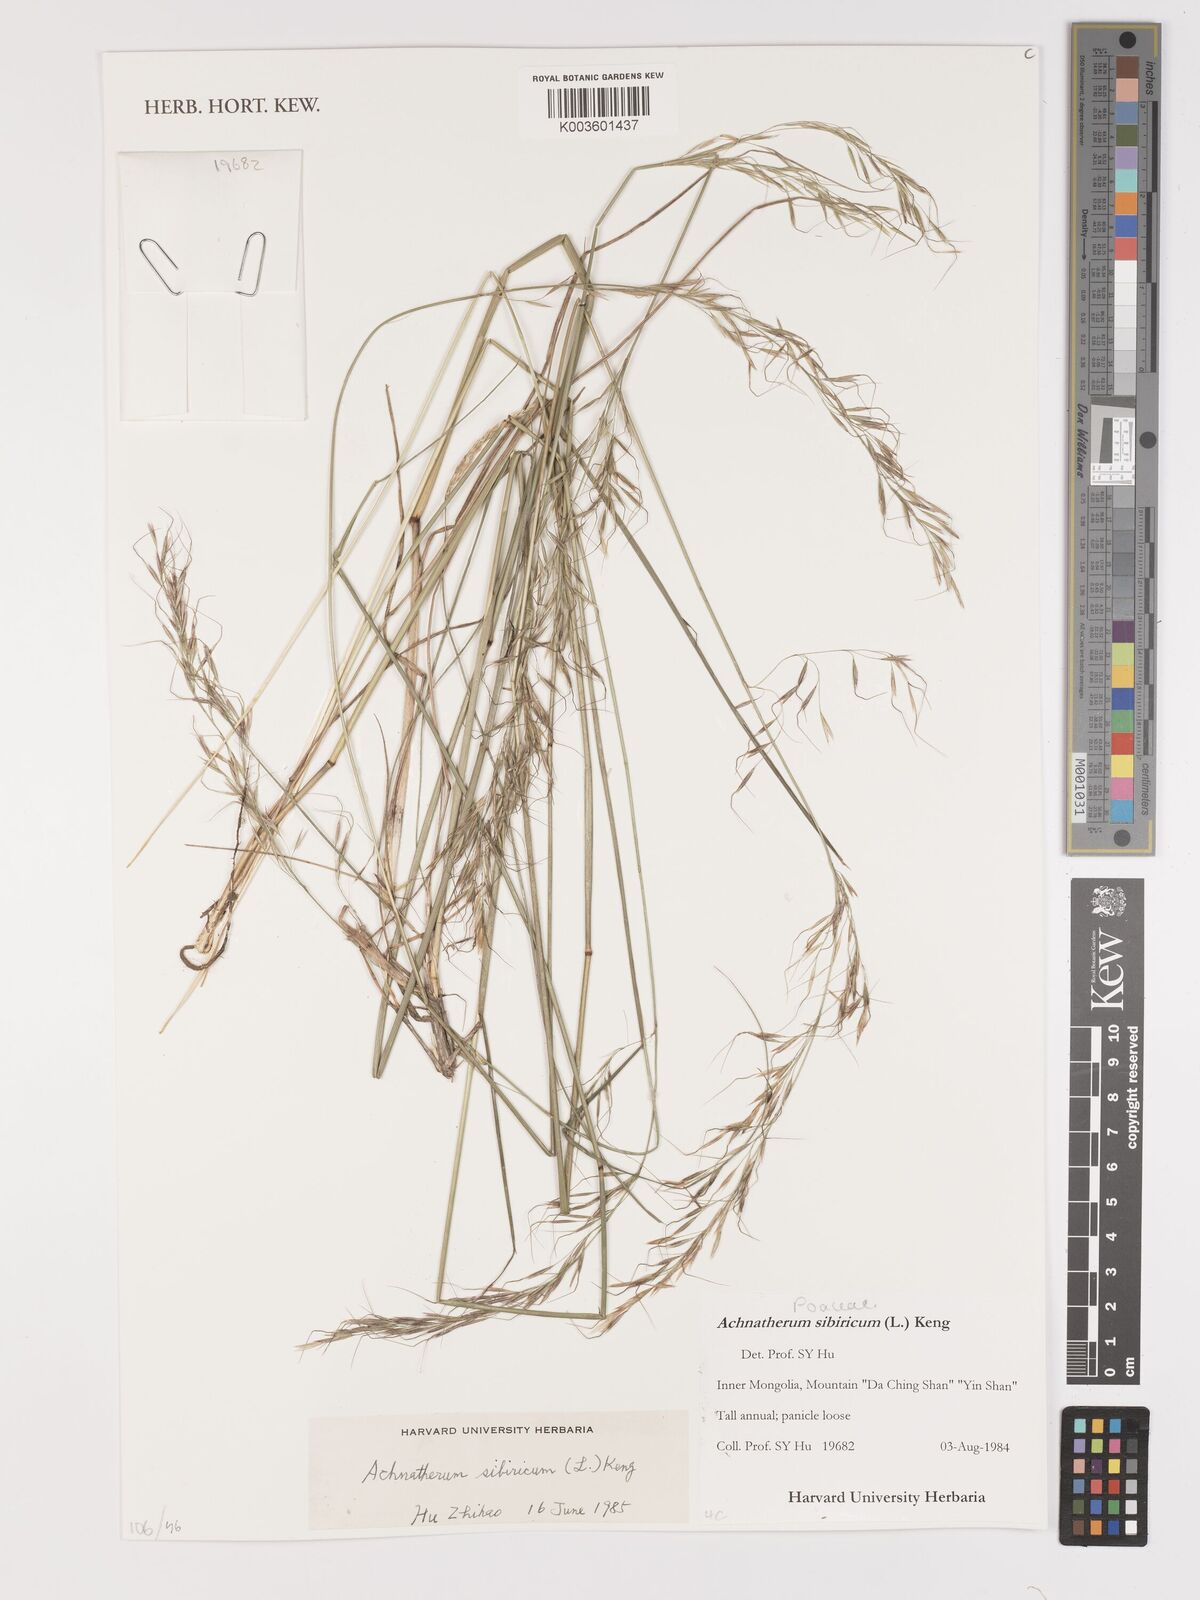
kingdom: Plantae
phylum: Tracheophyta
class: Liliopsida
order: Poales
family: Poaceae
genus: Achnatherum
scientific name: Achnatherum sibiricum
